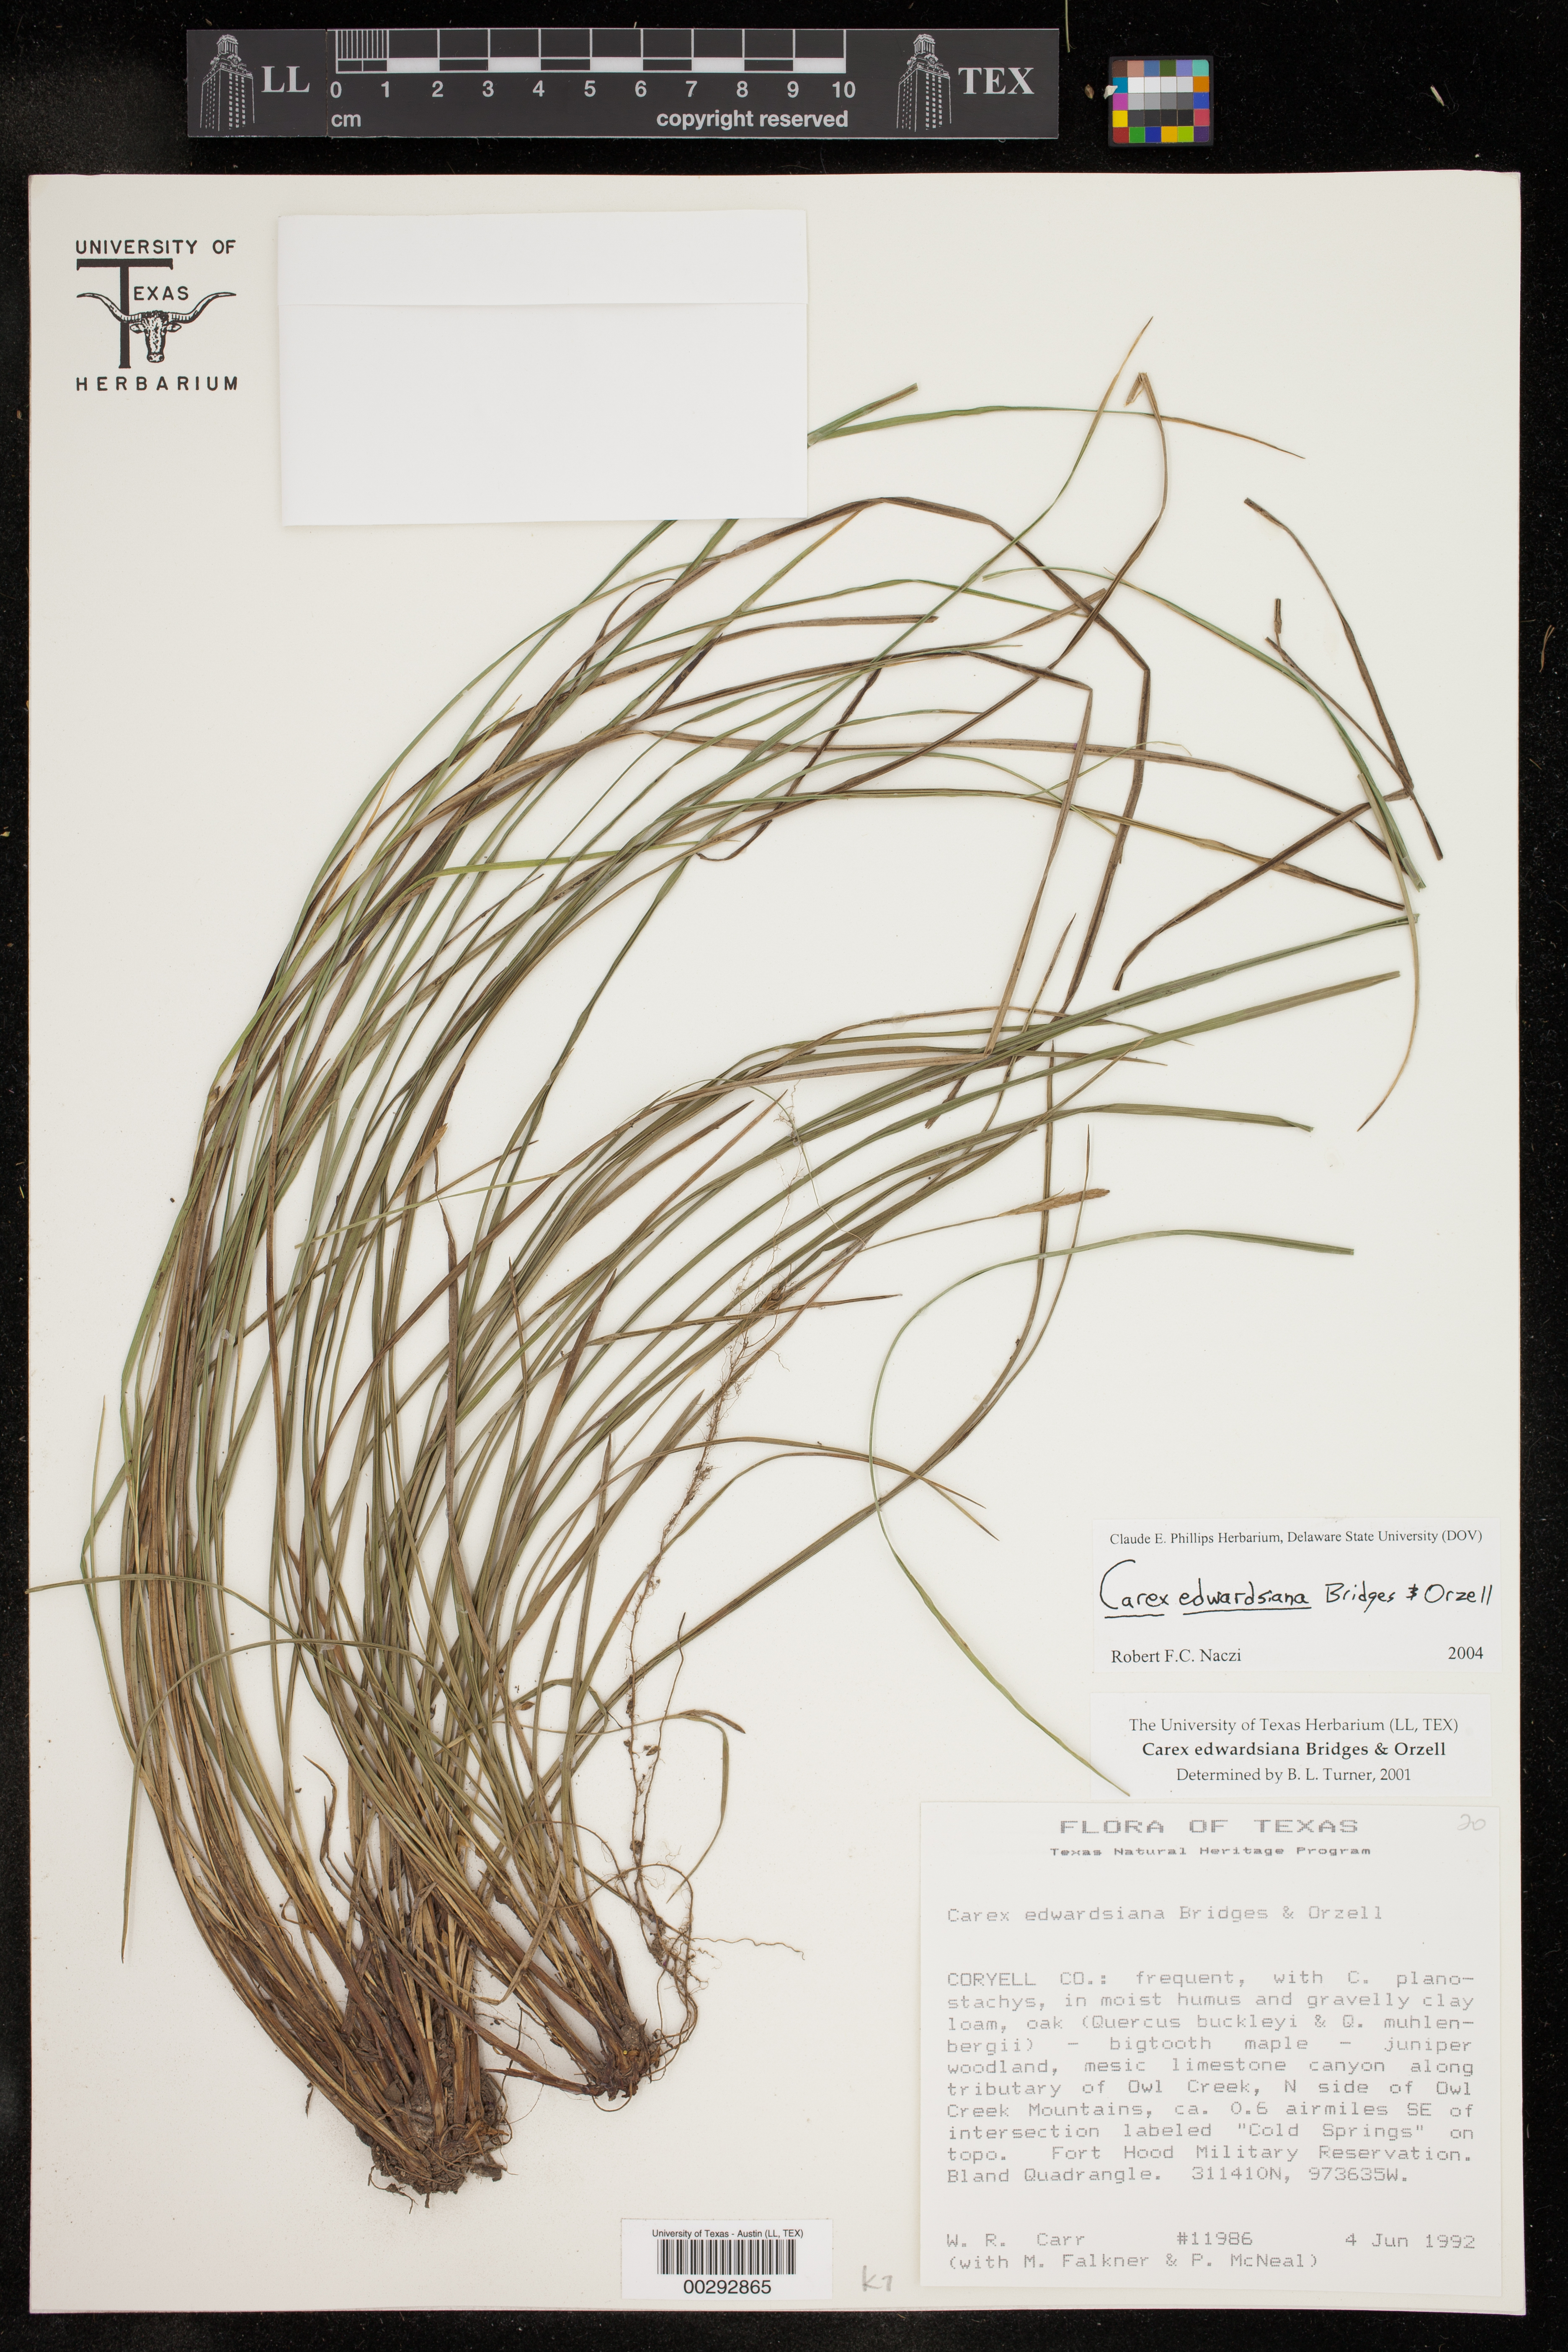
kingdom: Plantae
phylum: Tracheophyta
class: Liliopsida
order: Poales
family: Cyperaceae
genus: Carex
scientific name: Carex edwardsiana
